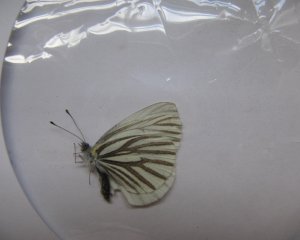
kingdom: Animalia
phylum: Arthropoda
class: Insecta
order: Lepidoptera
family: Pieridae
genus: Pieris
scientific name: Pieris oleracea
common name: Mustard White
